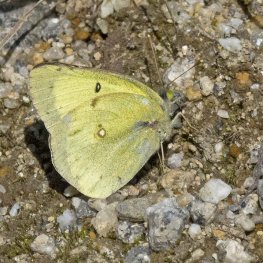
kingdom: Animalia
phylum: Arthropoda
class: Insecta
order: Lepidoptera
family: Pieridae
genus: Colias
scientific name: Colias philodice
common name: Clouded Sulphur
